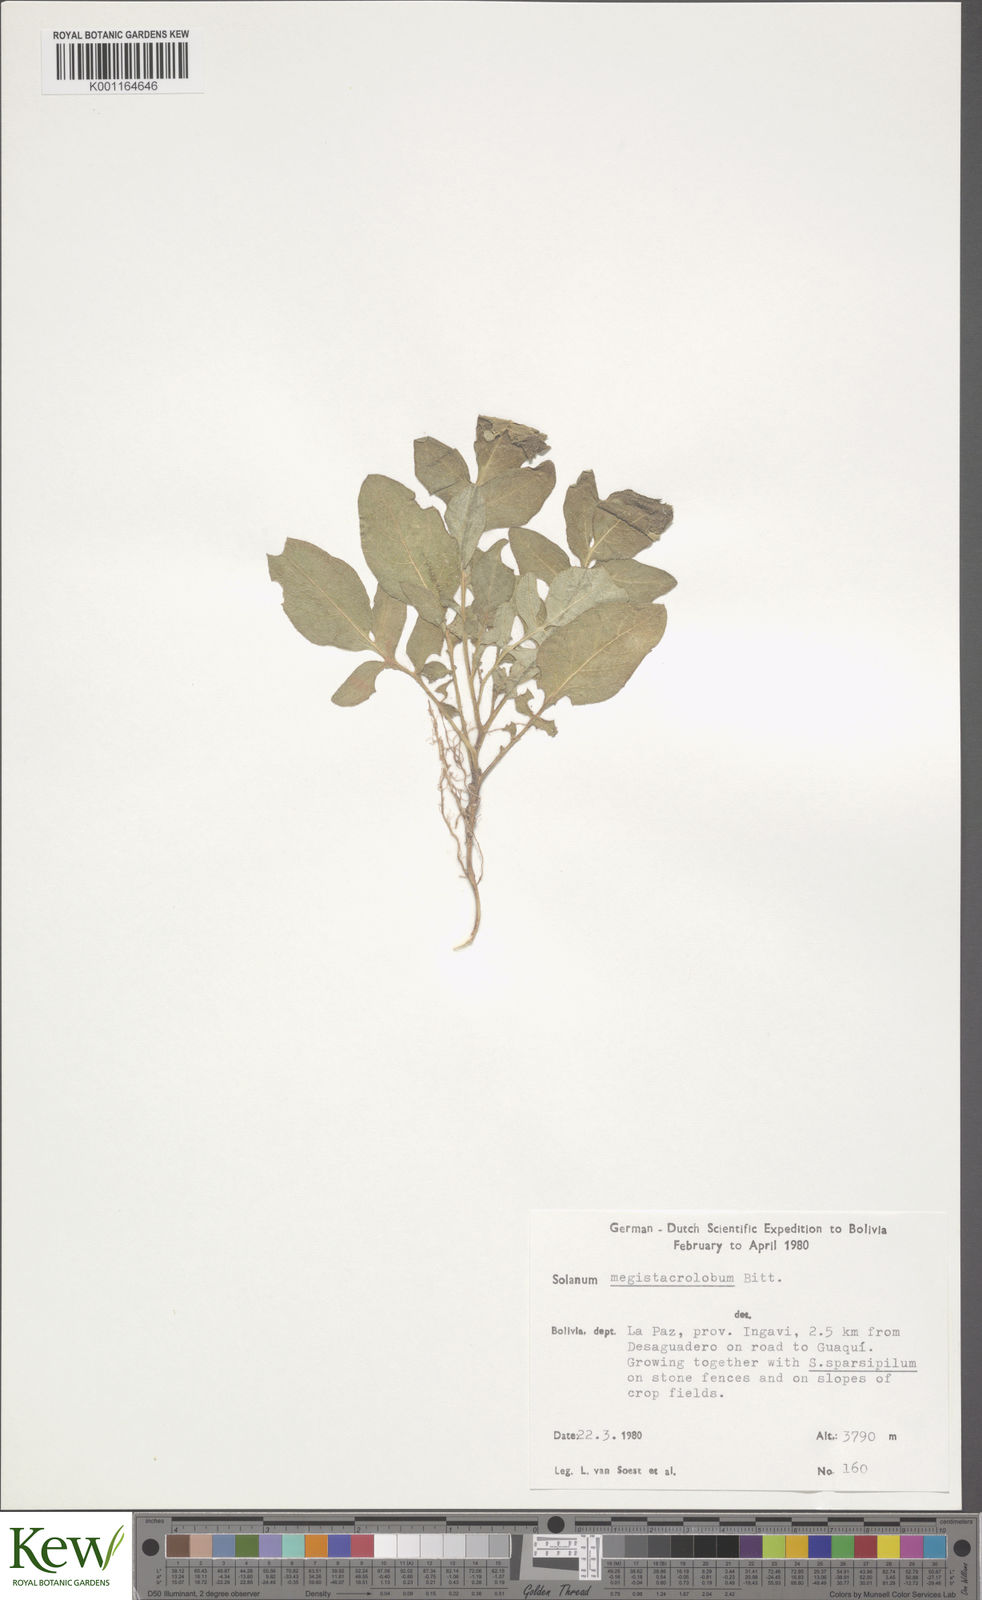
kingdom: Plantae
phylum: Tracheophyta
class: Magnoliopsida
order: Solanales
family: Solanaceae
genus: Solanum
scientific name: Solanum boliviense
